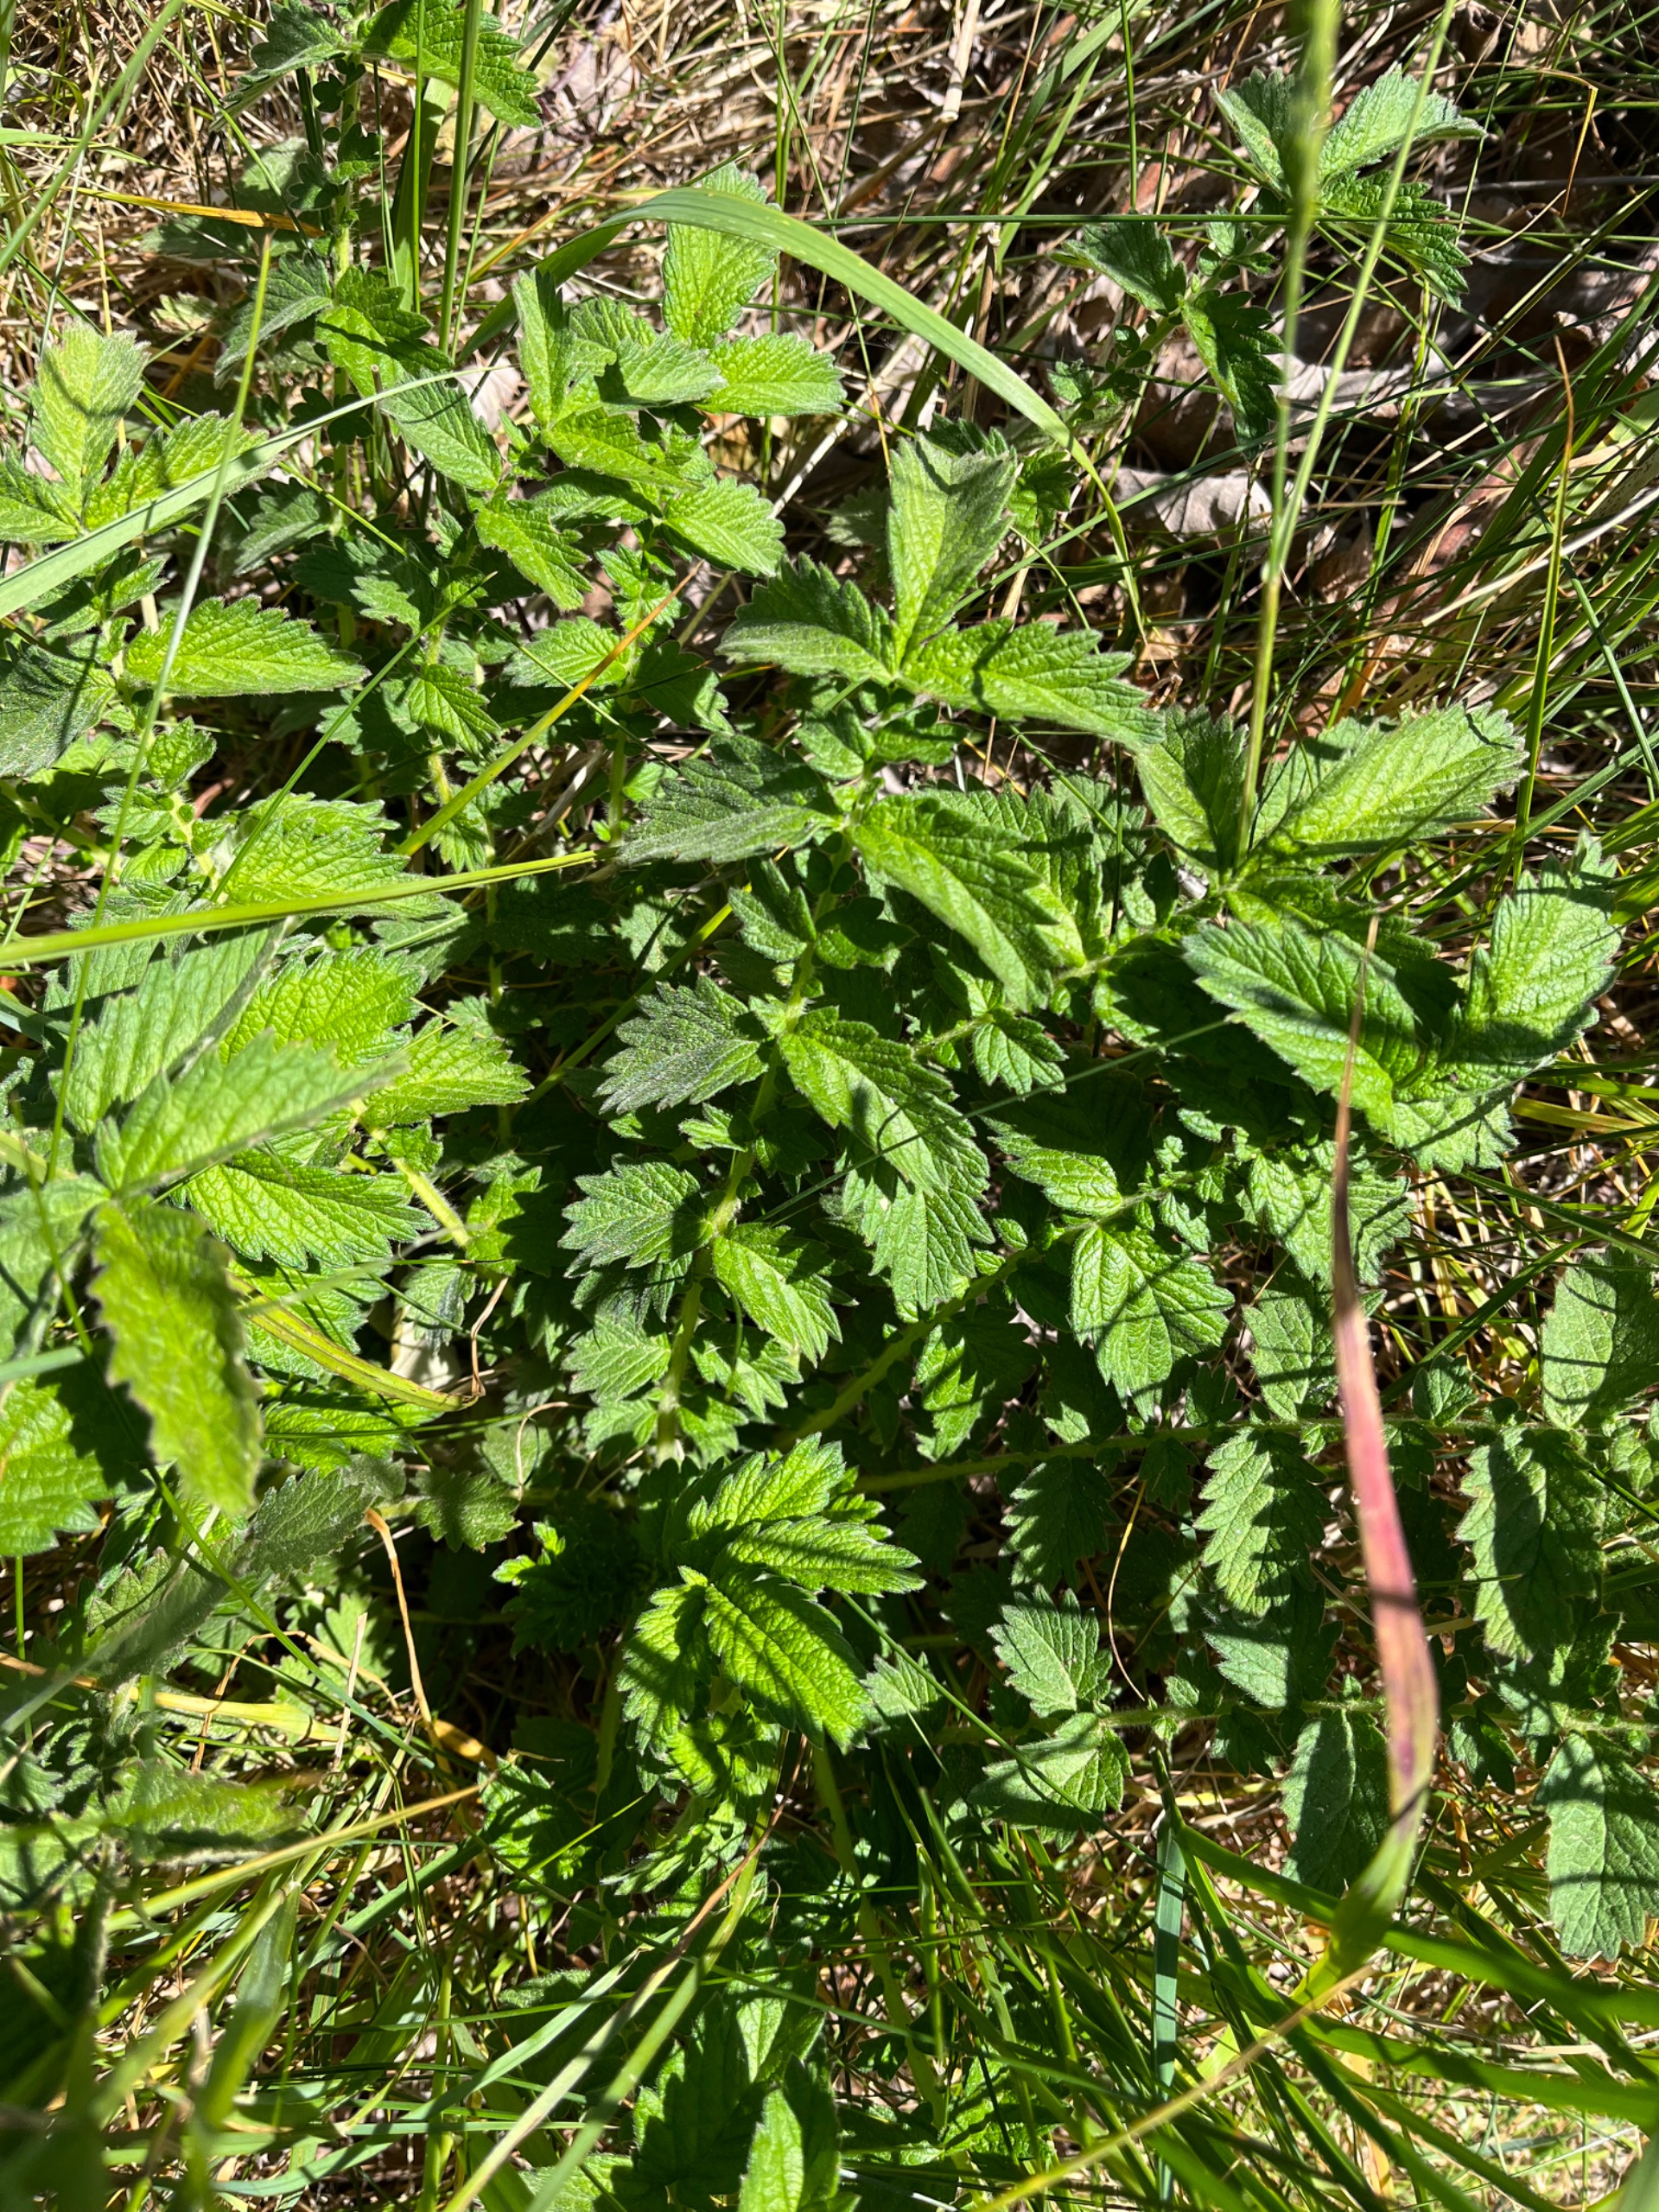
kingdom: Plantae
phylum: Tracheophyta
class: Magnoliopsida
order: Rosales
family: Rosaceae
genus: Filipendula
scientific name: Filipendula ulmaria
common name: Almindelig mjødurt
